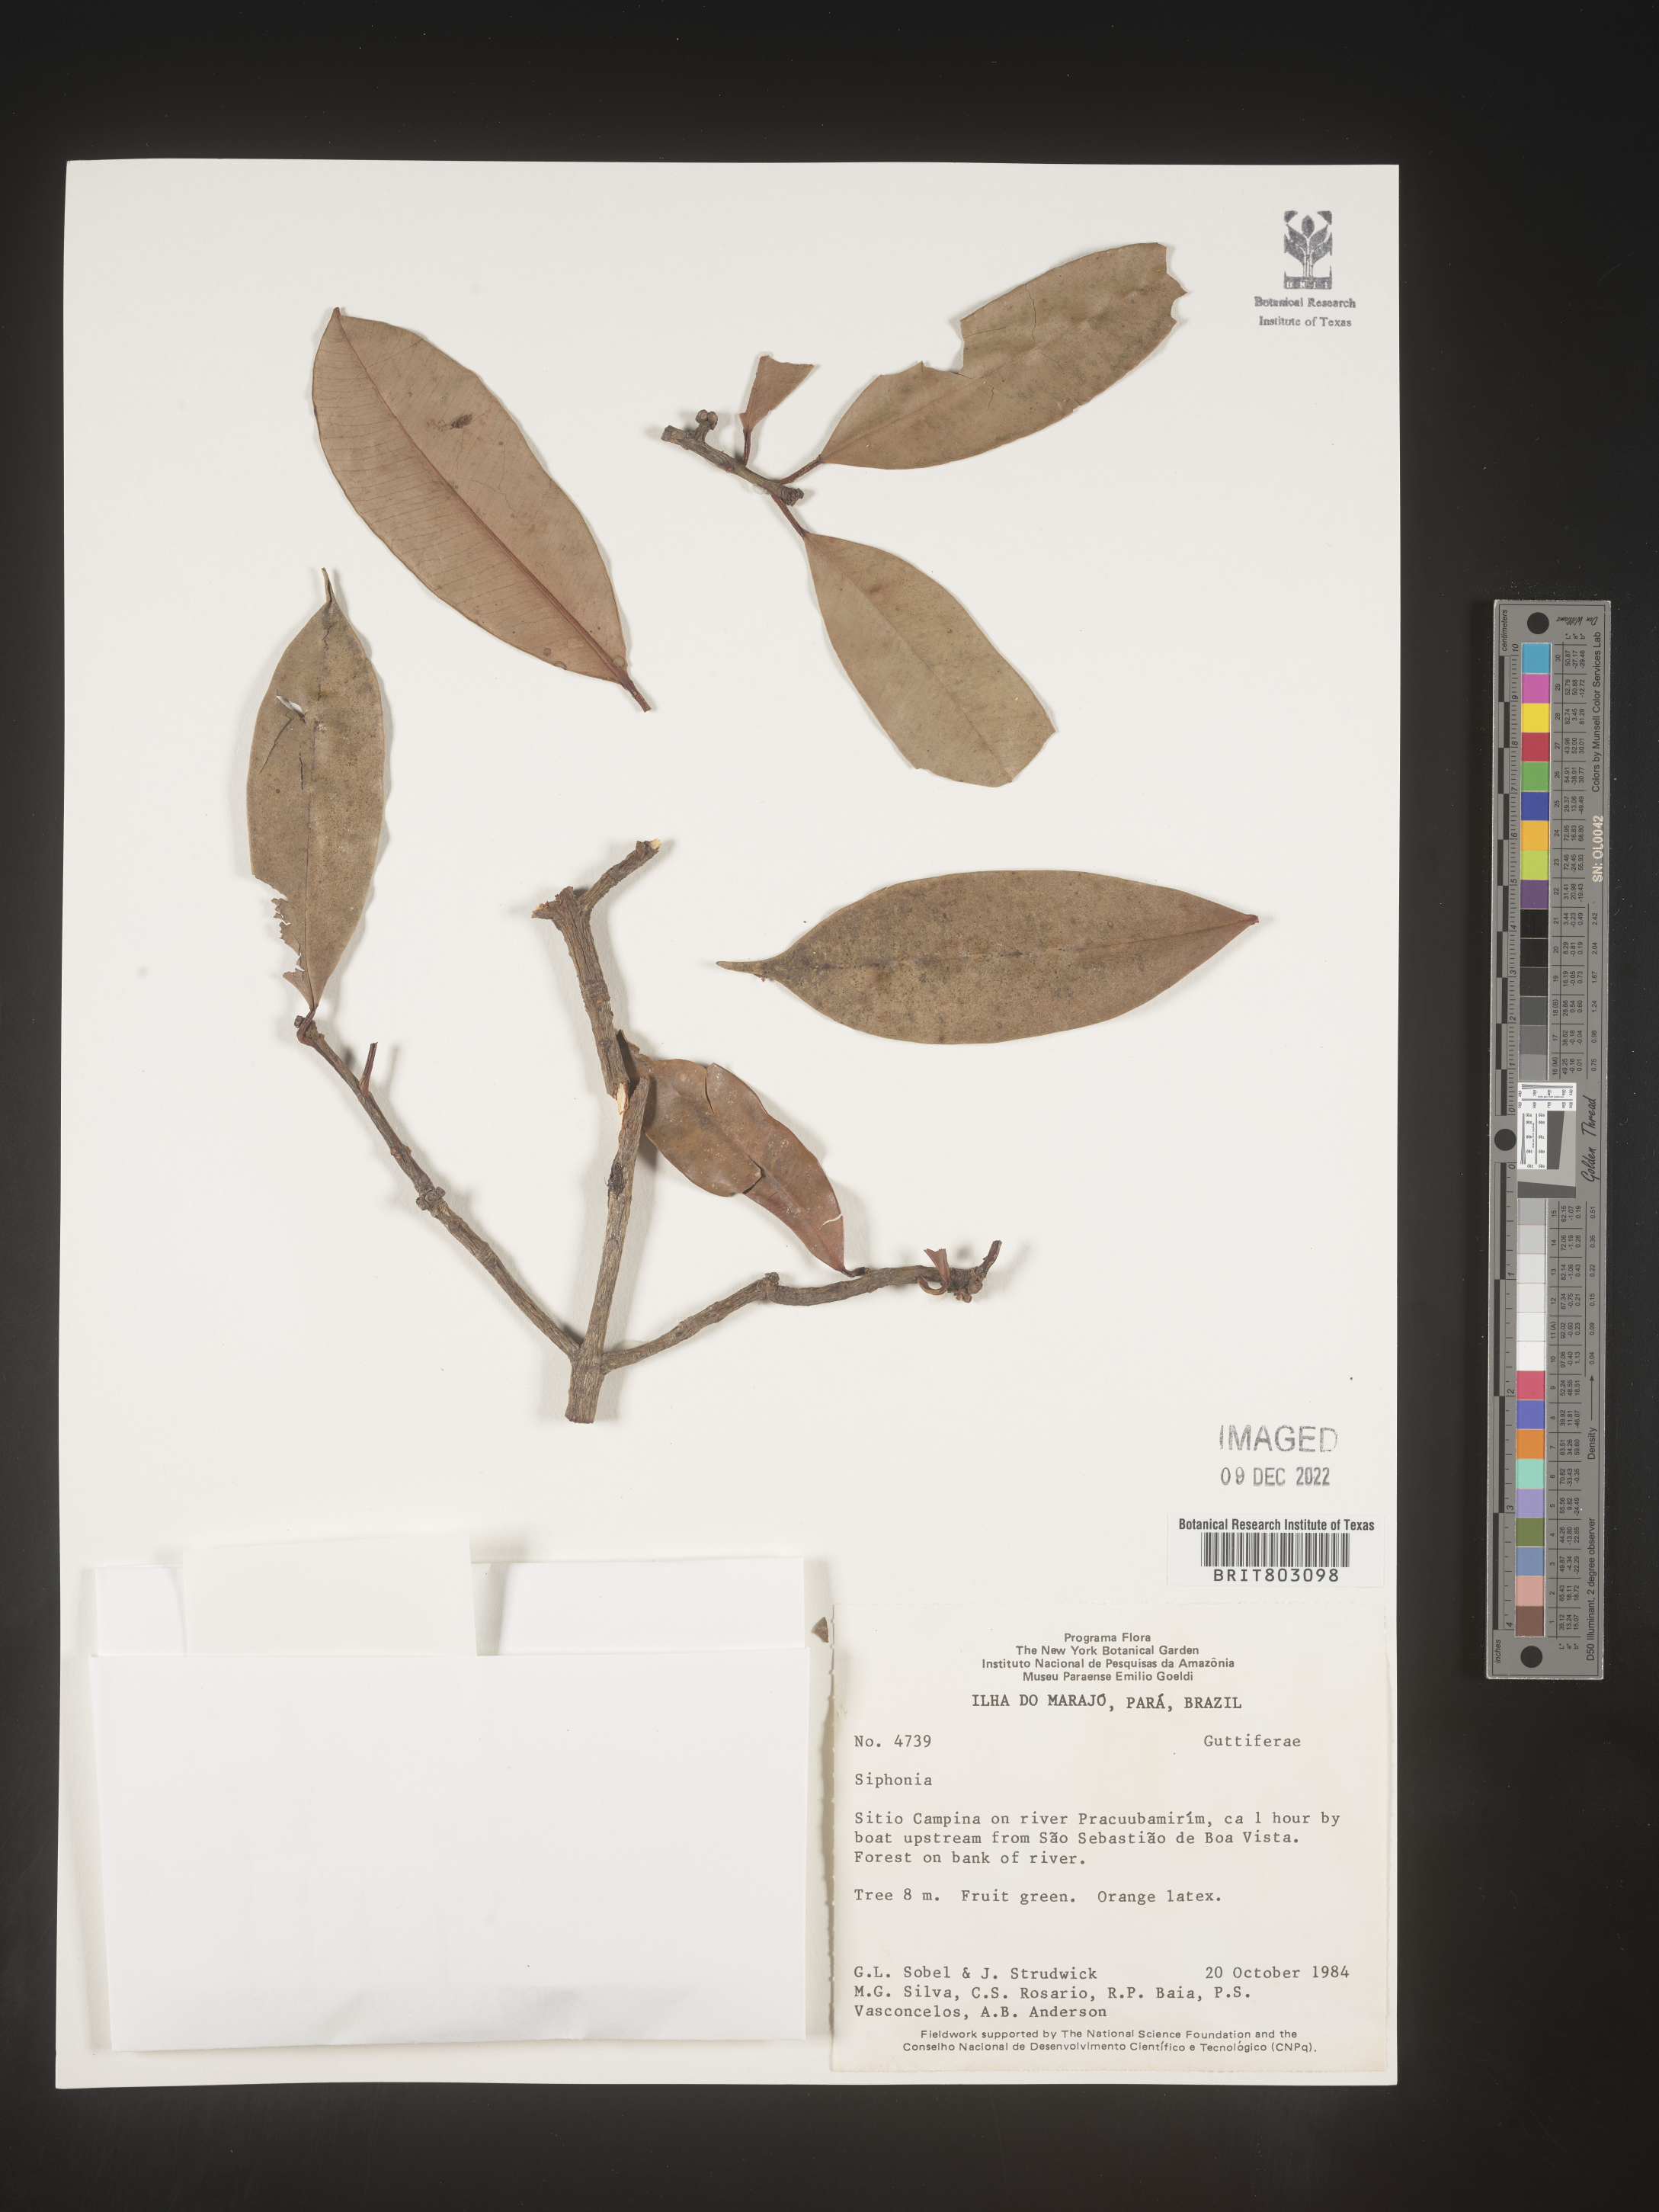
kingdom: Plantae
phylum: Tracheophyta
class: Magnoliopsida
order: Malpighiales
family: Clusiaceae
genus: Symphonia
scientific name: Symphonia
